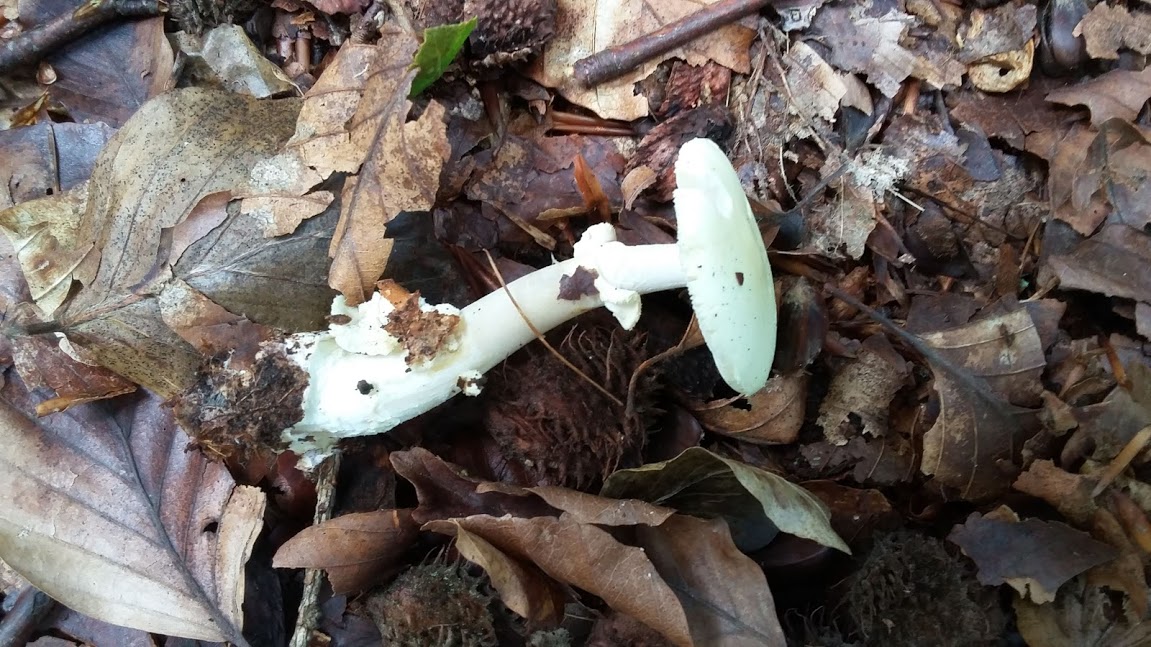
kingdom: Fungi
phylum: Basidiomycota
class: Agaricomycetes
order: Agaricales
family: Amanitaceae
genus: Amanita
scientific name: Amanita citrina
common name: kugleknoldet fluesvamp
